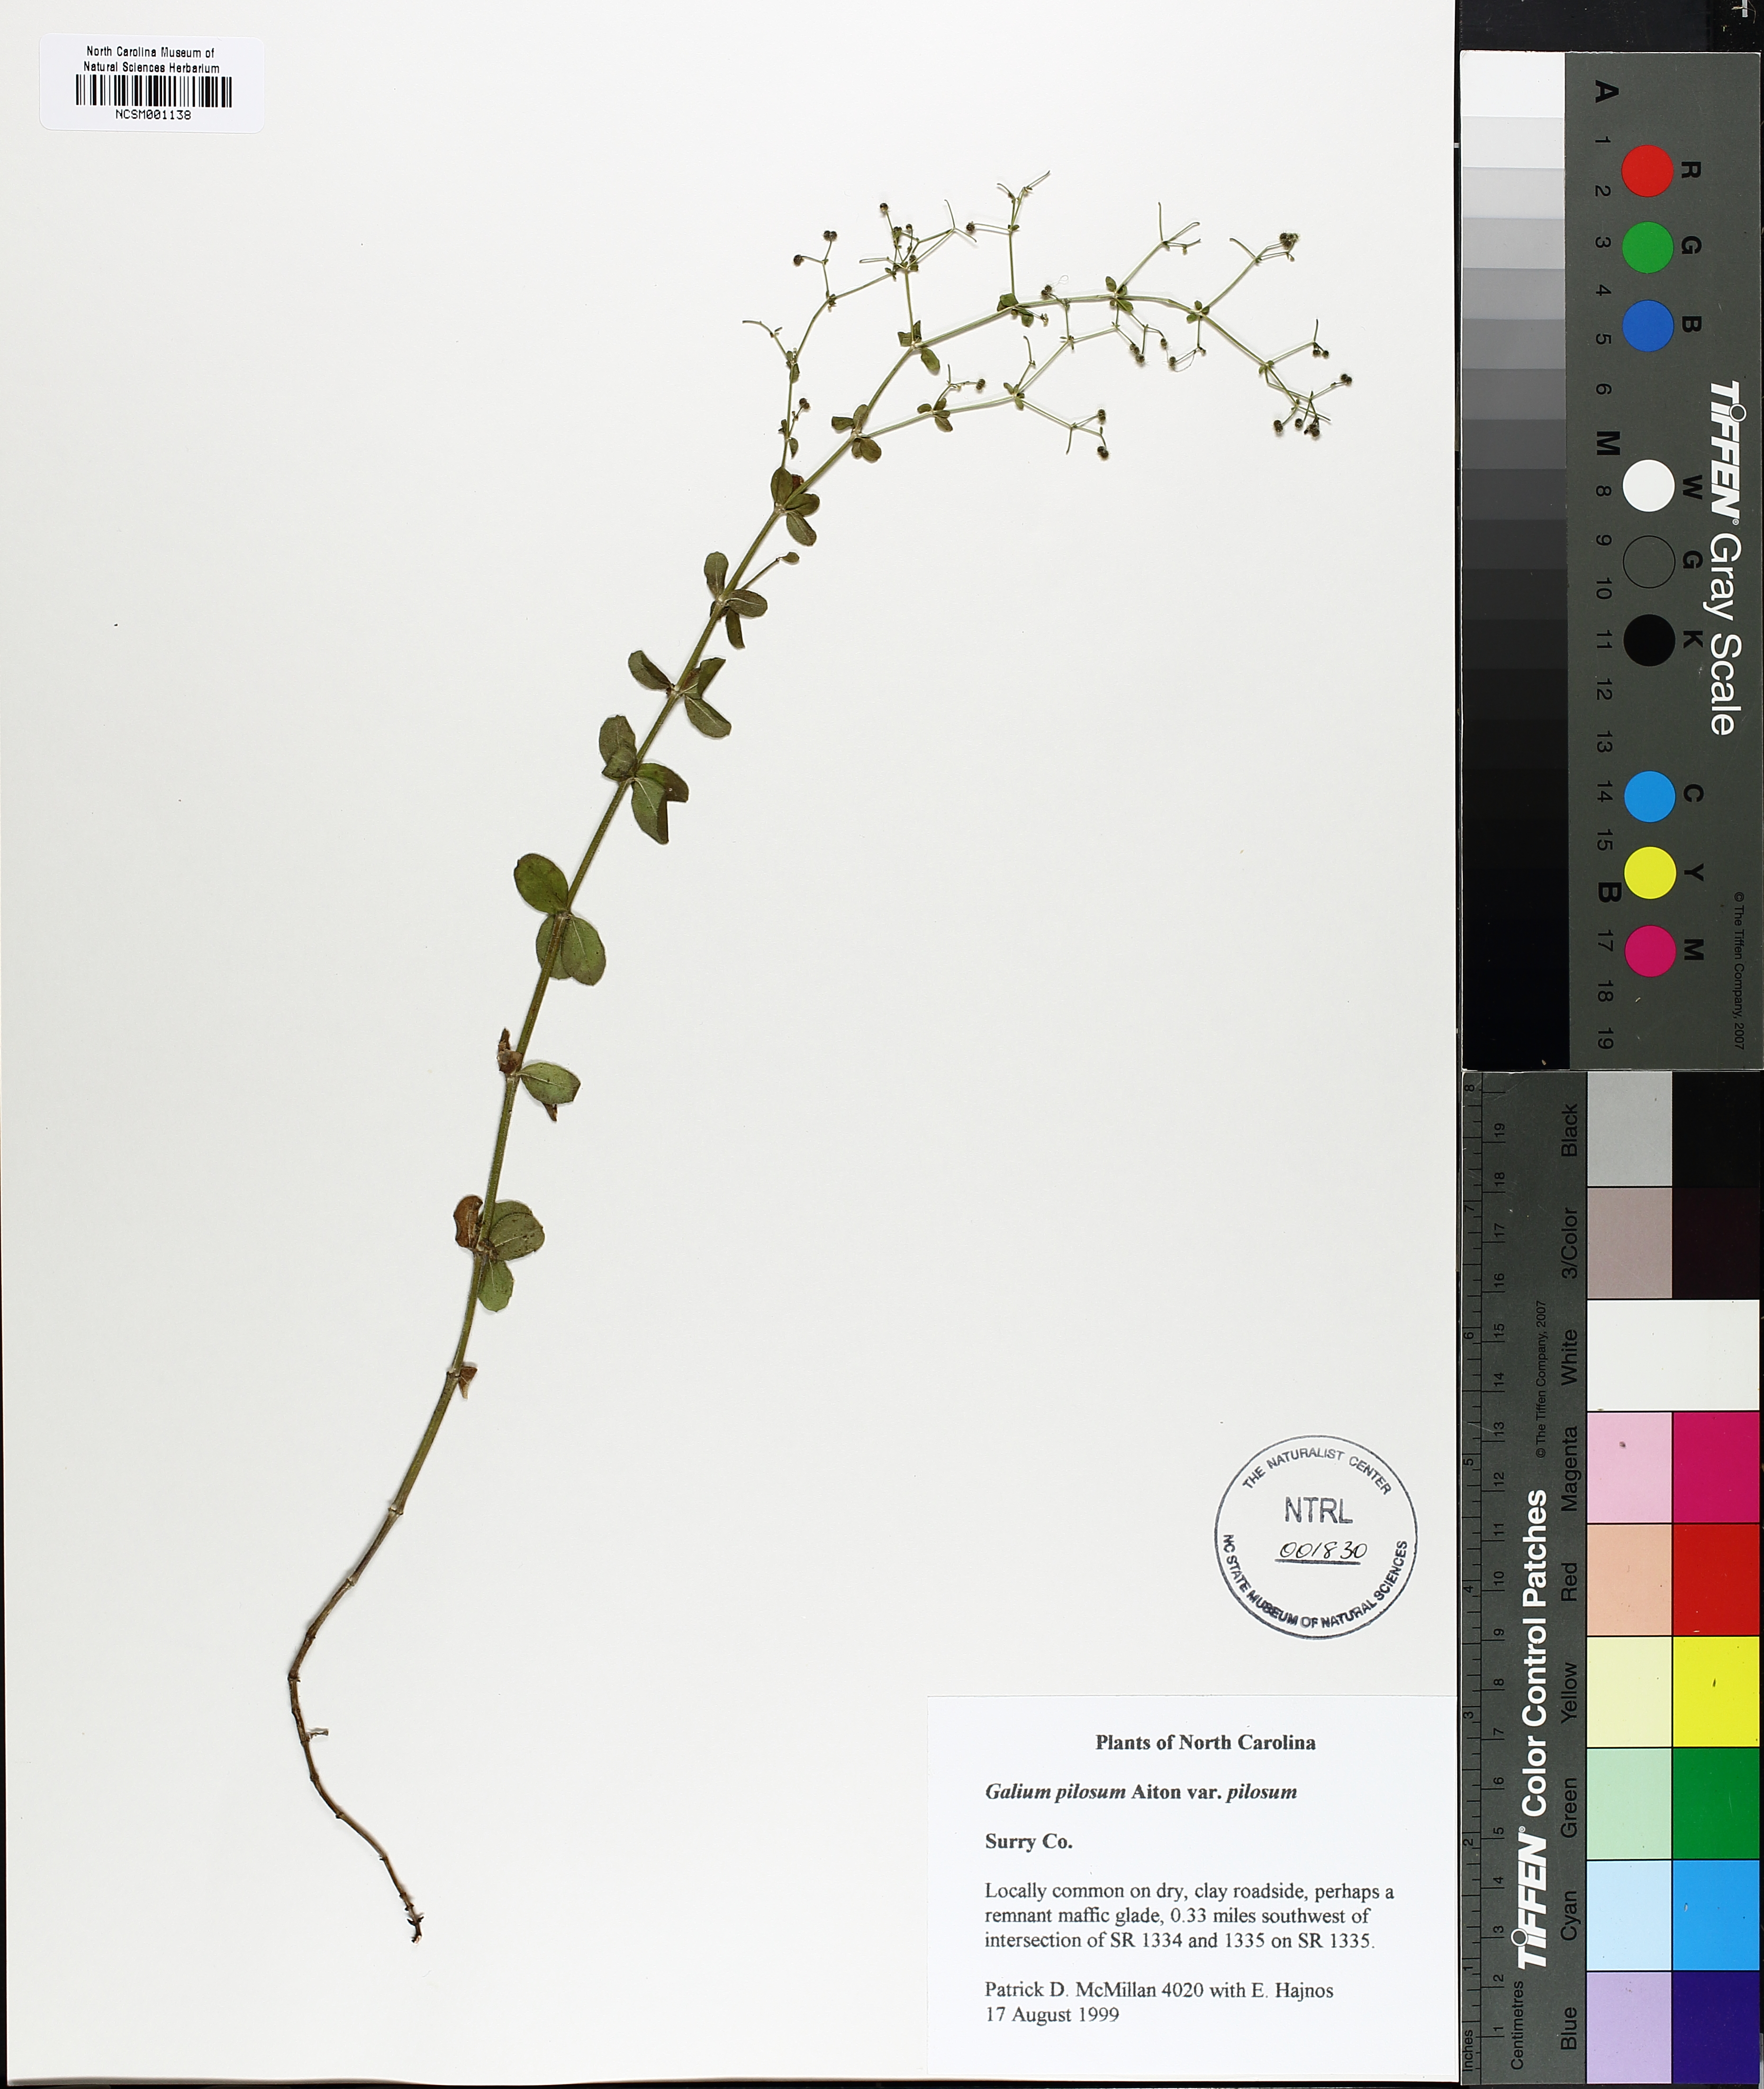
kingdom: Plantae
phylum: Tracheophyta
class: Magnoliopsida
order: Gentianales
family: Rubiaceae
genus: Galium
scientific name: Galium pilosum
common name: Hairy bedstraw
